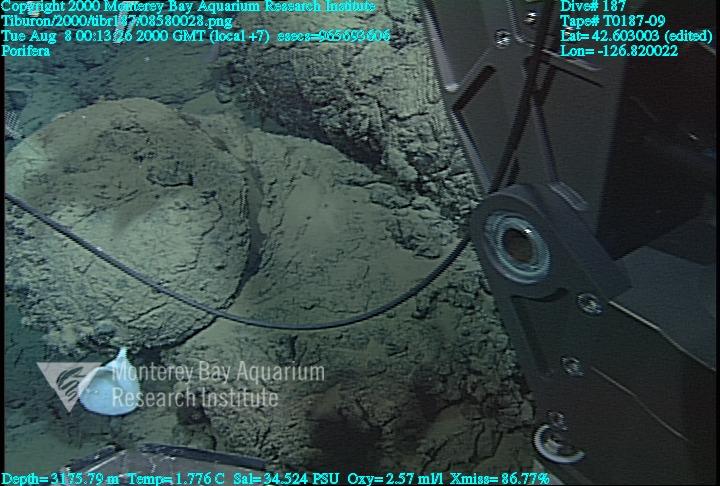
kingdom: Animalia
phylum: Porifera
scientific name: Porifera
